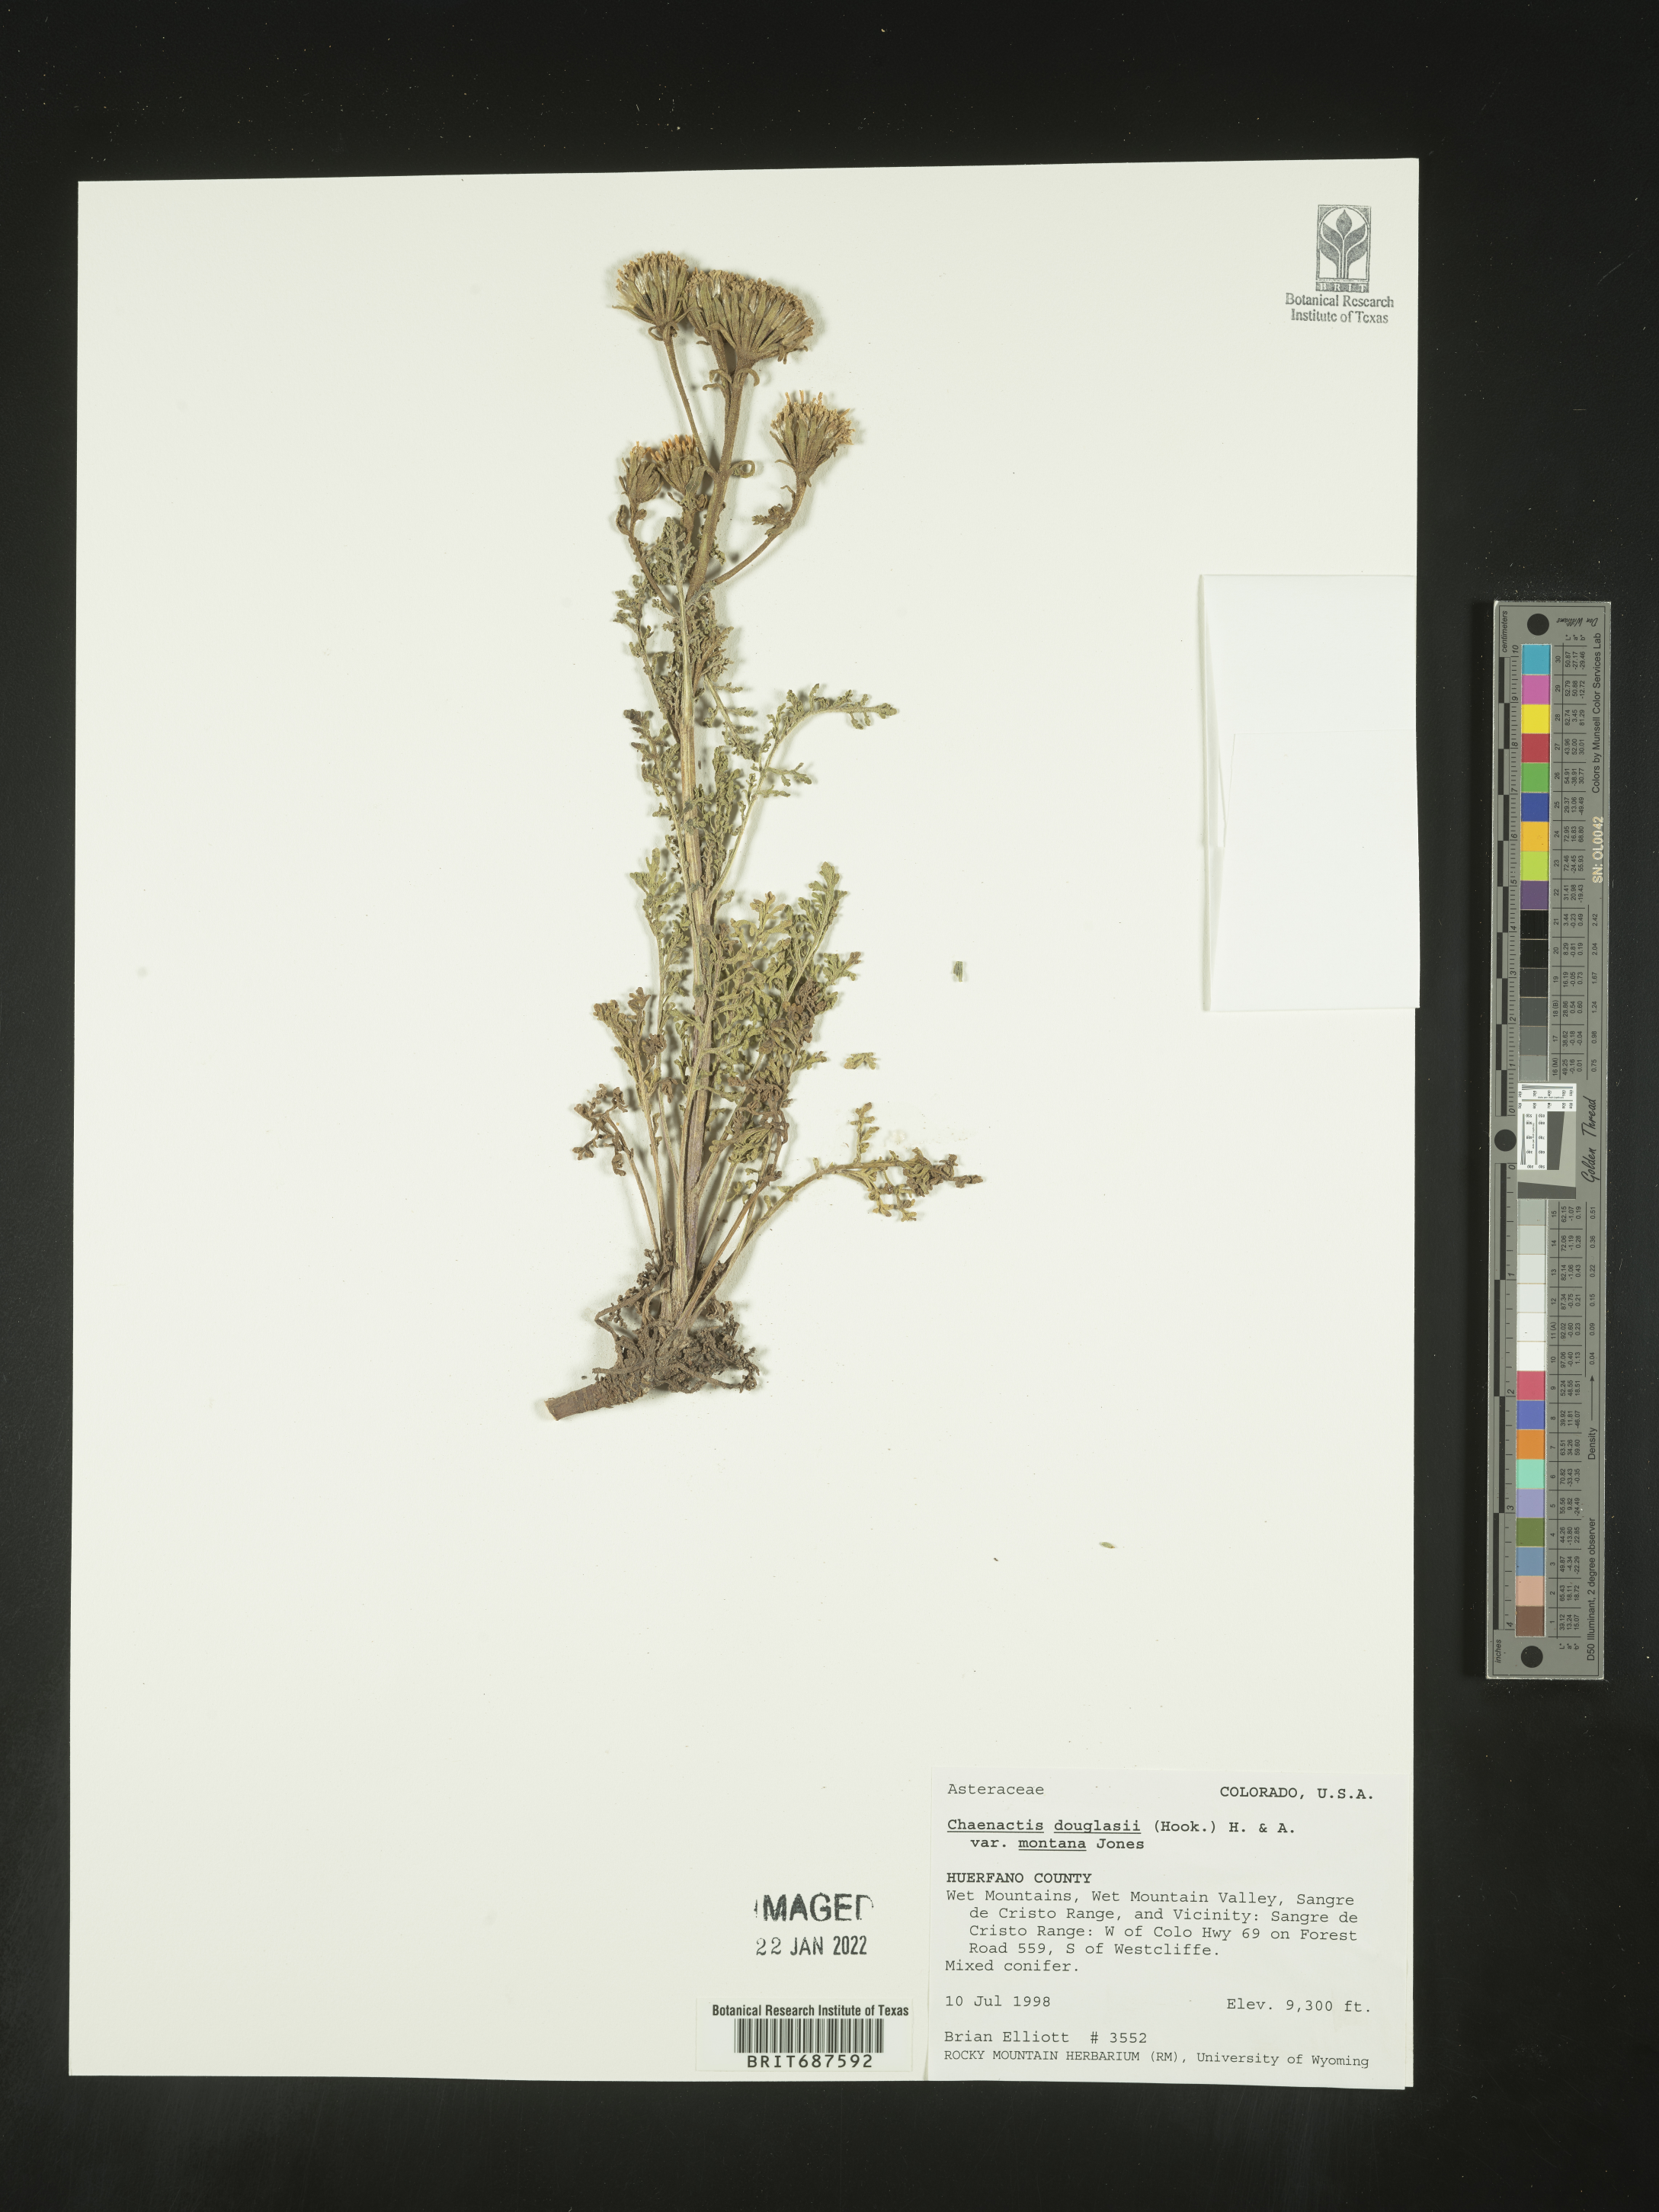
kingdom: Plantae
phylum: Tracheophyta
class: Magnoliopsida
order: Asterales
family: Asteraceae
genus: Chaenactis
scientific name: Chaenactis douglasii
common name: Hoary pincushion
